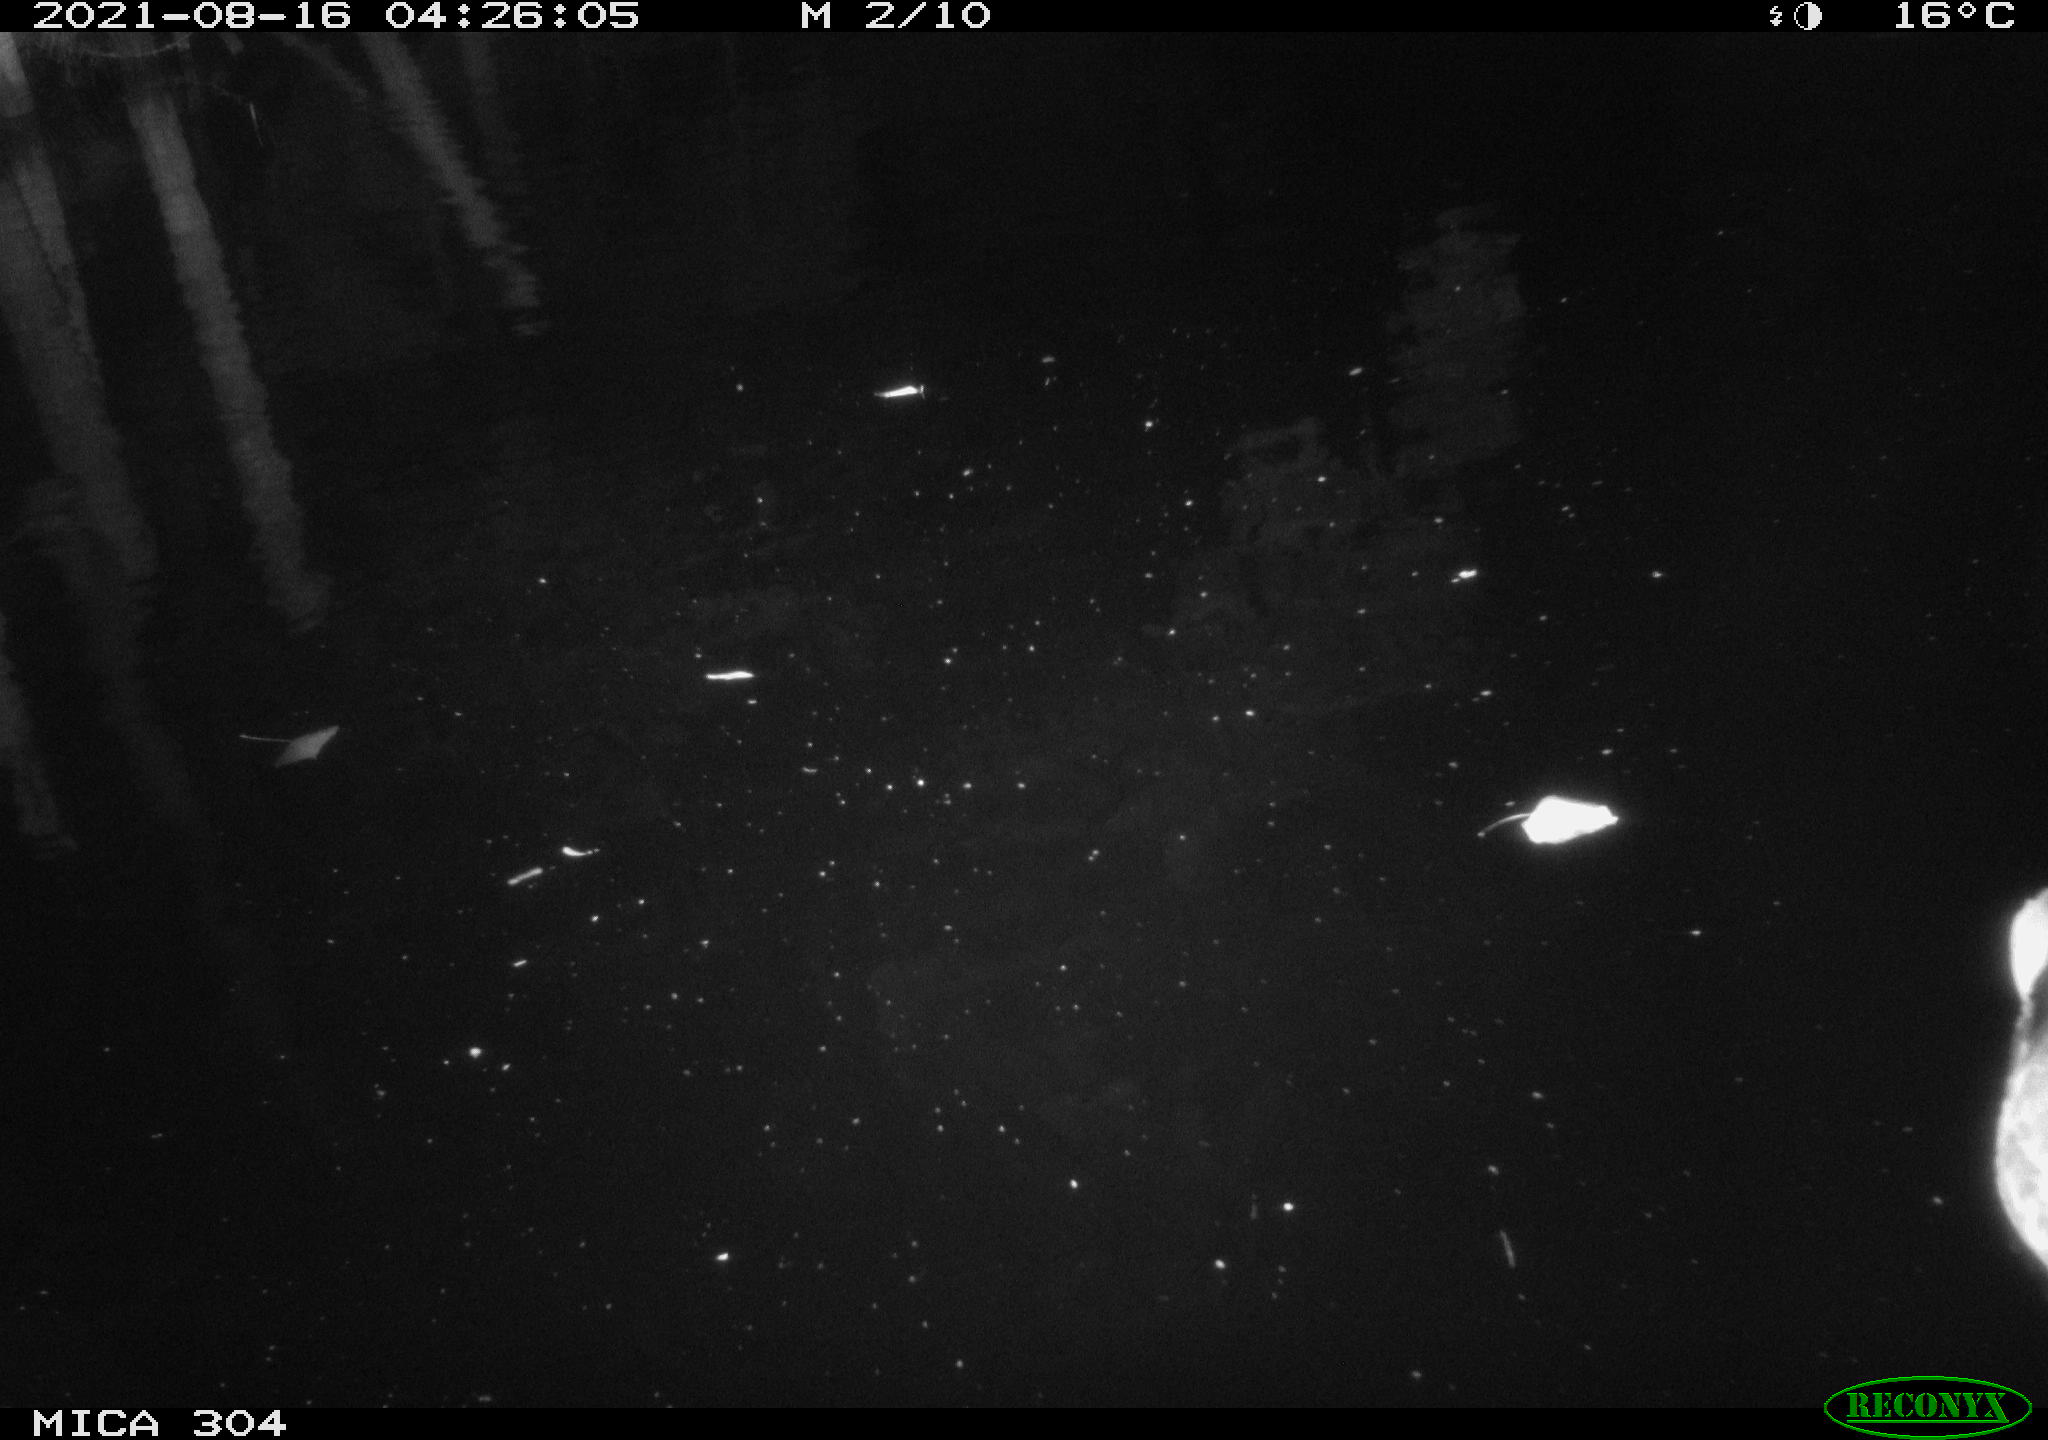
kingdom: Animalia
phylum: Chordata
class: Aves
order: Anseriformes
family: Anatidae
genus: Anas
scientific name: Anas platyrhynchos
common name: Mallard
